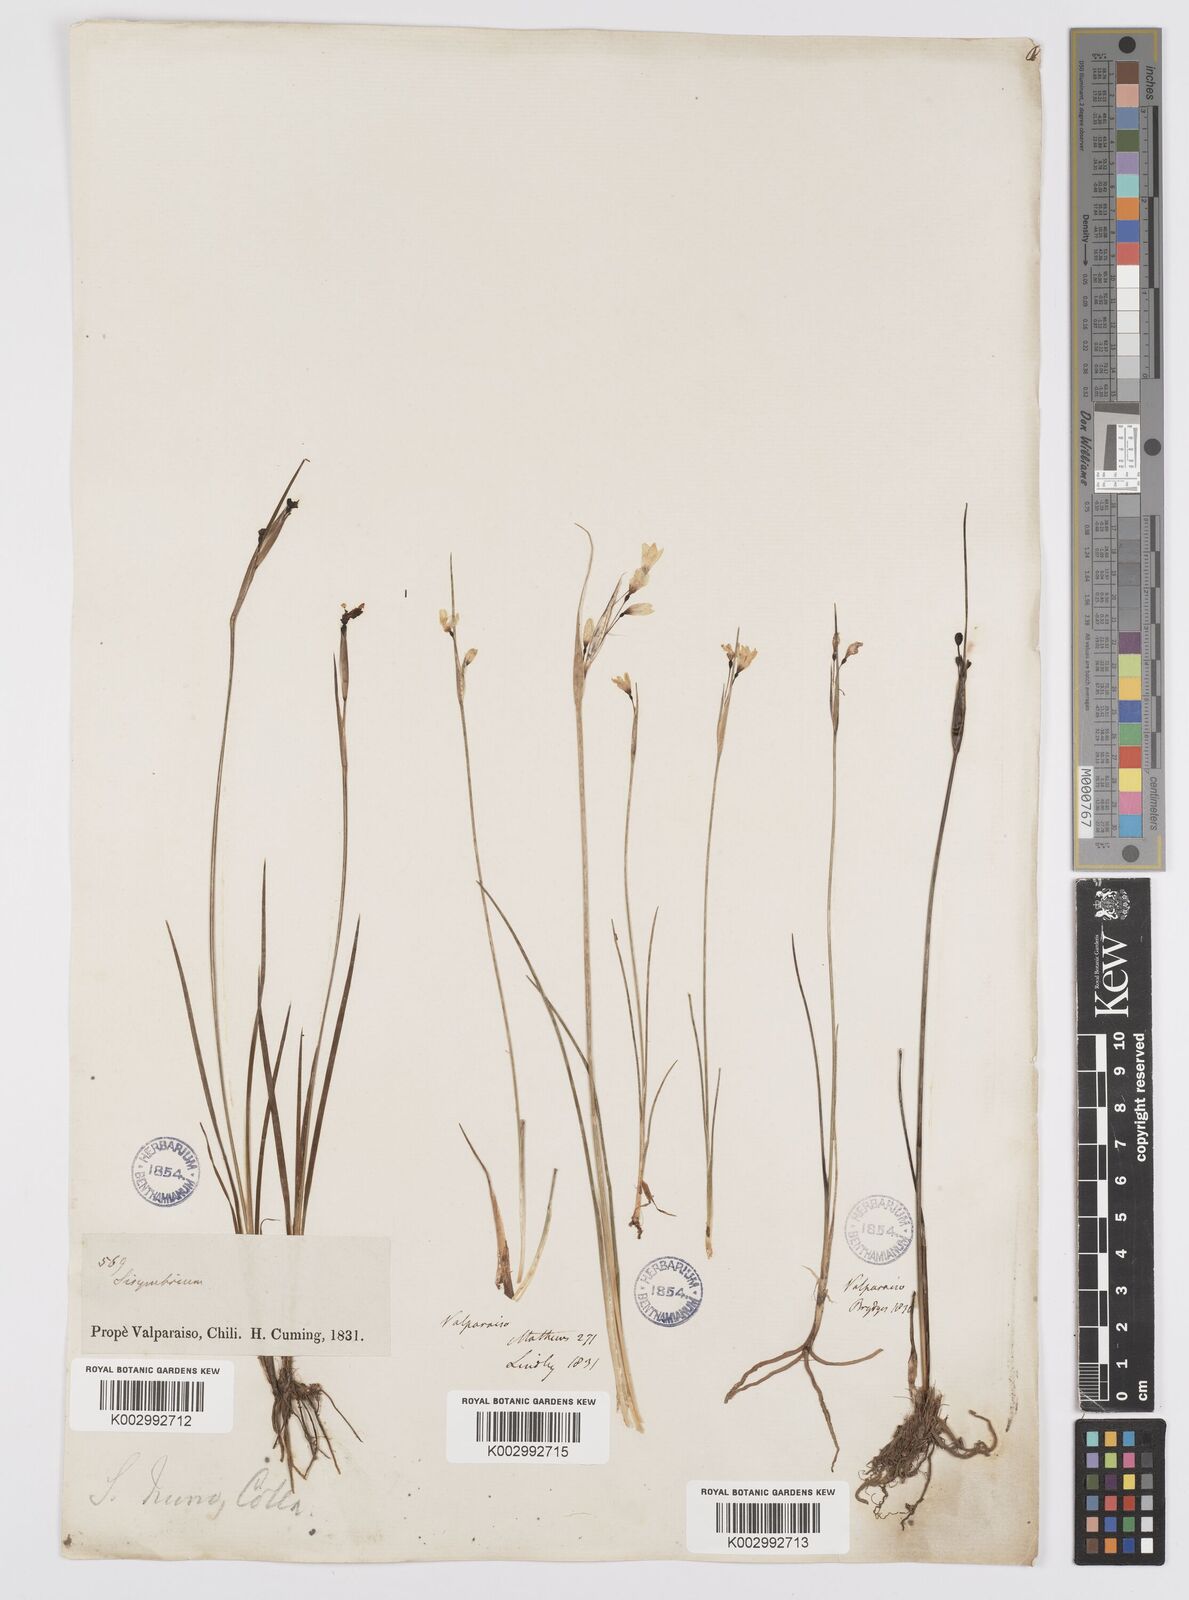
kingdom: Plantae
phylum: Tracheophyta
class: Liliopsida
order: Asparagales
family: Iridaceae
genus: Olsynium
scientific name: Olsynium scirpoideum
